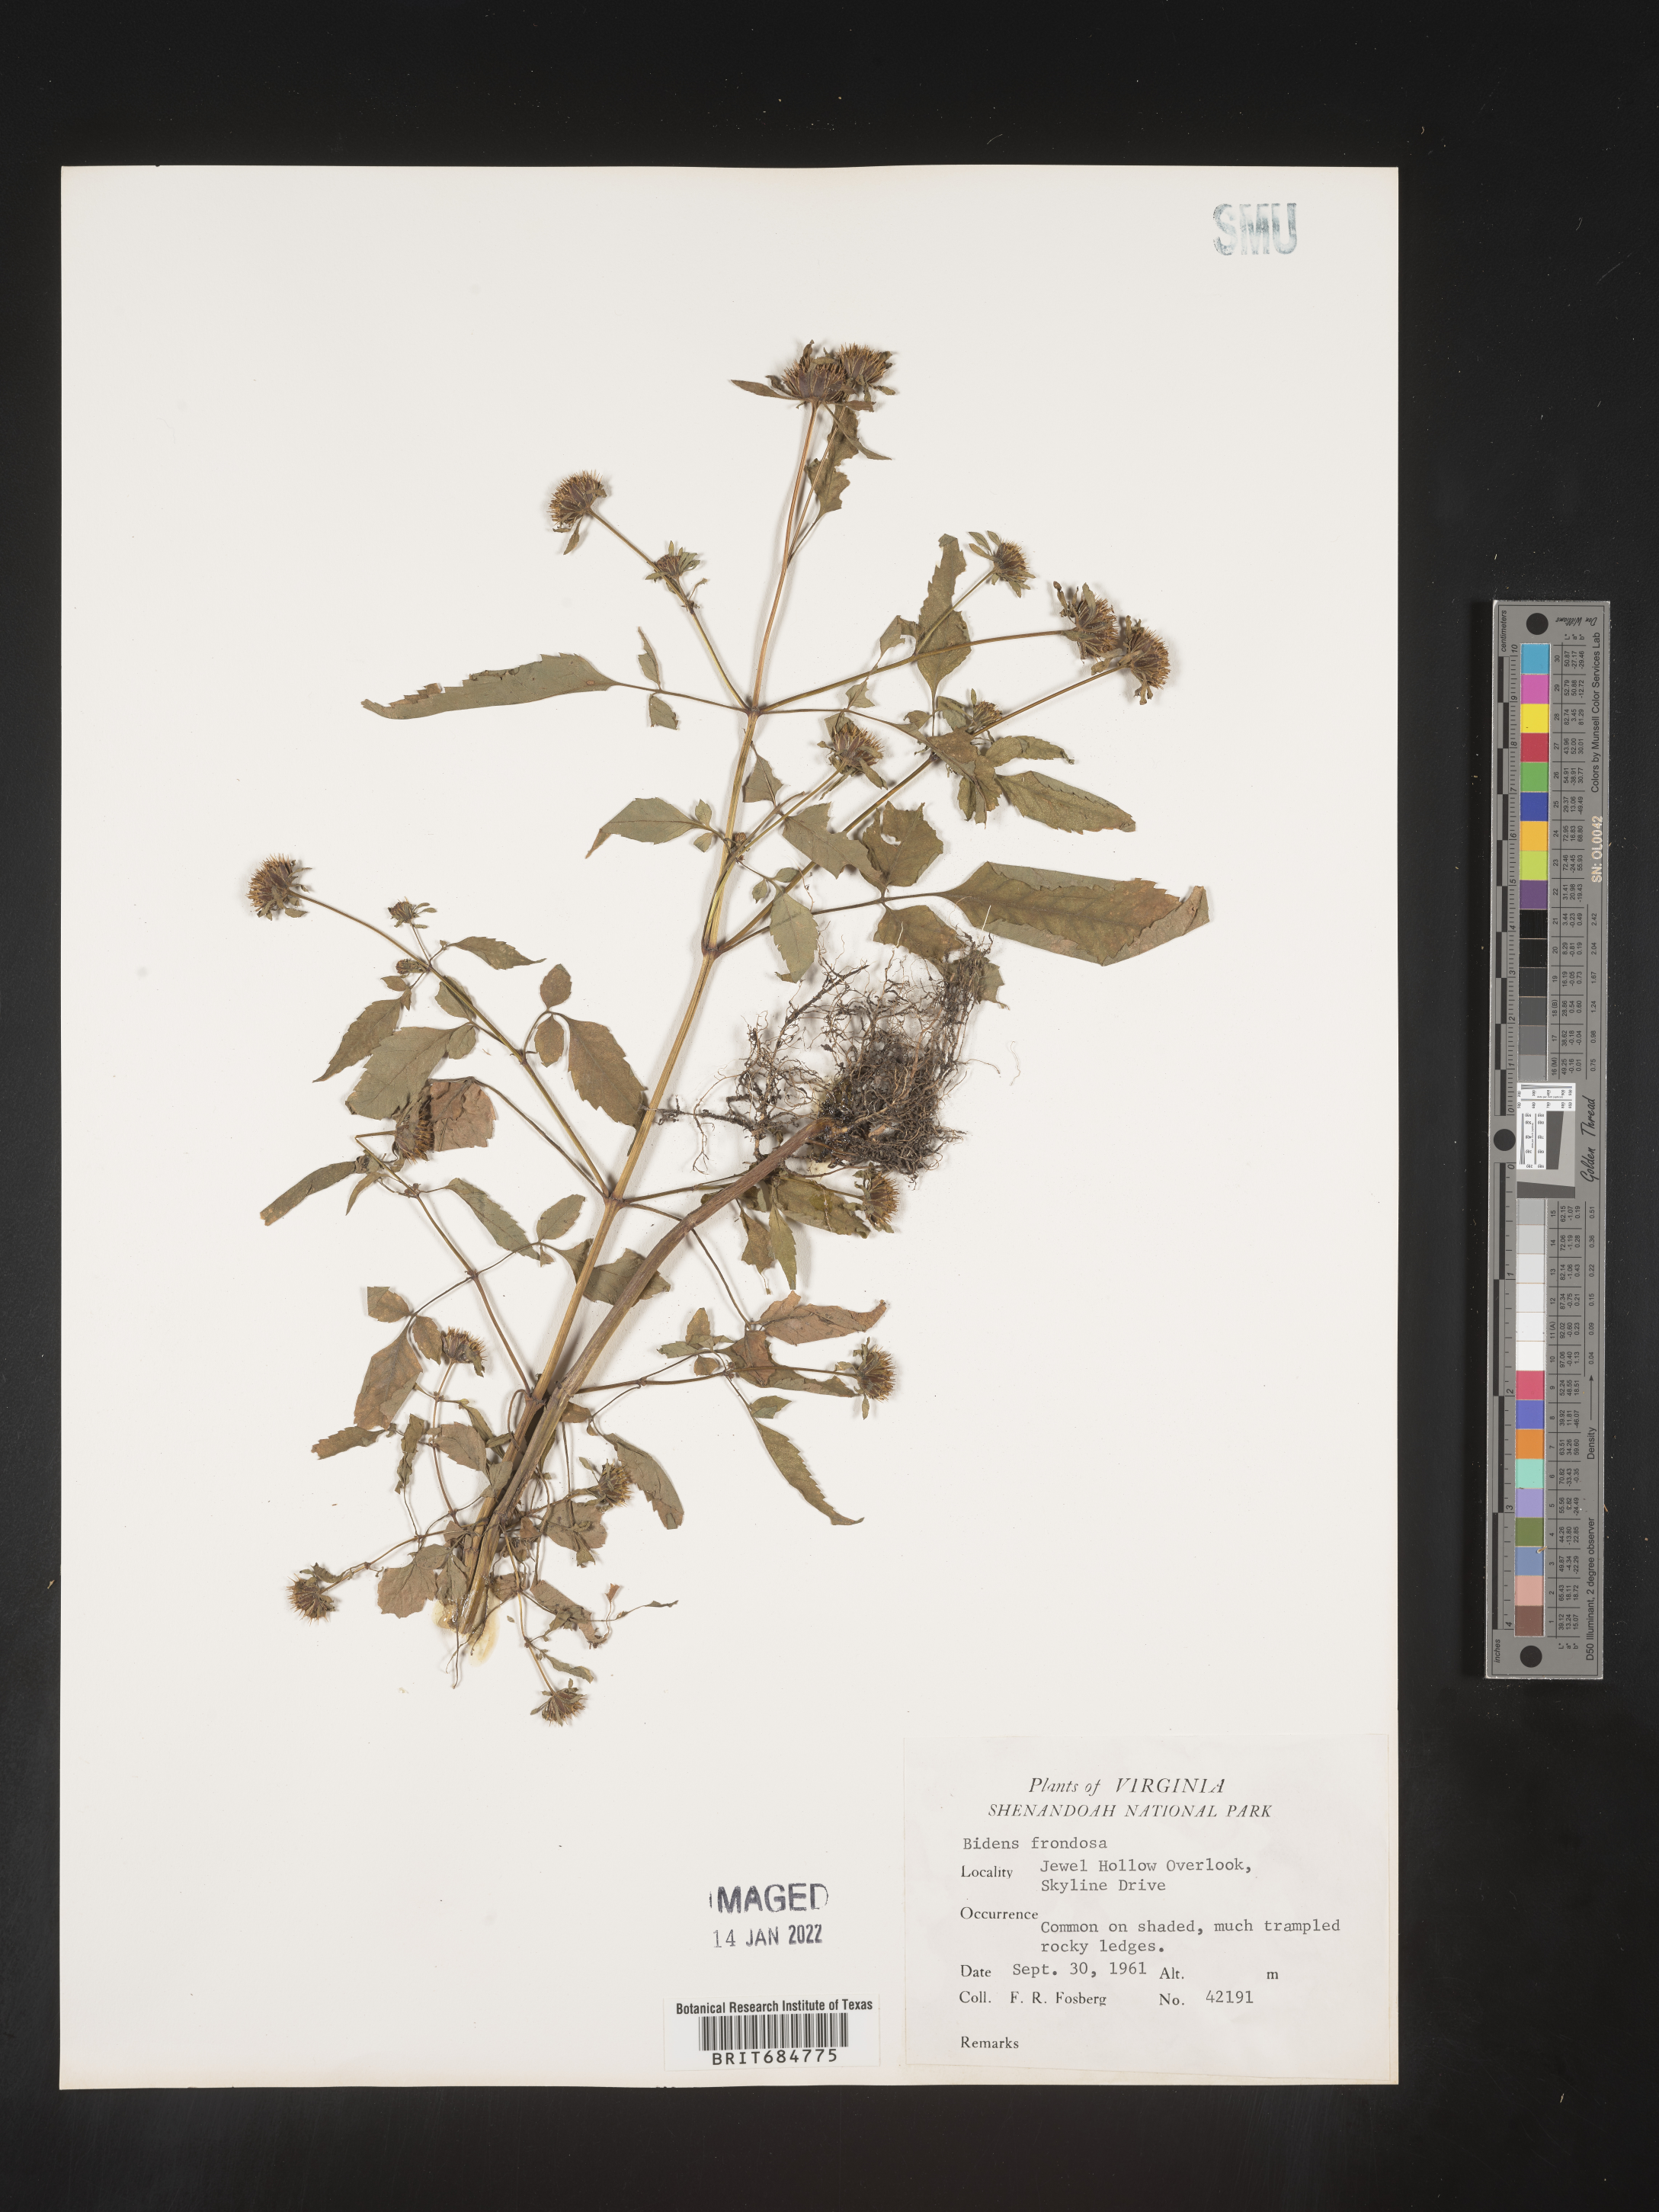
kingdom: Plantae
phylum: Tracheophyta
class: Magnoliopsida
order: Asterales
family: Asteraceae
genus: Bidens
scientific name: Bidens frondosa
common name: Beggarticks
